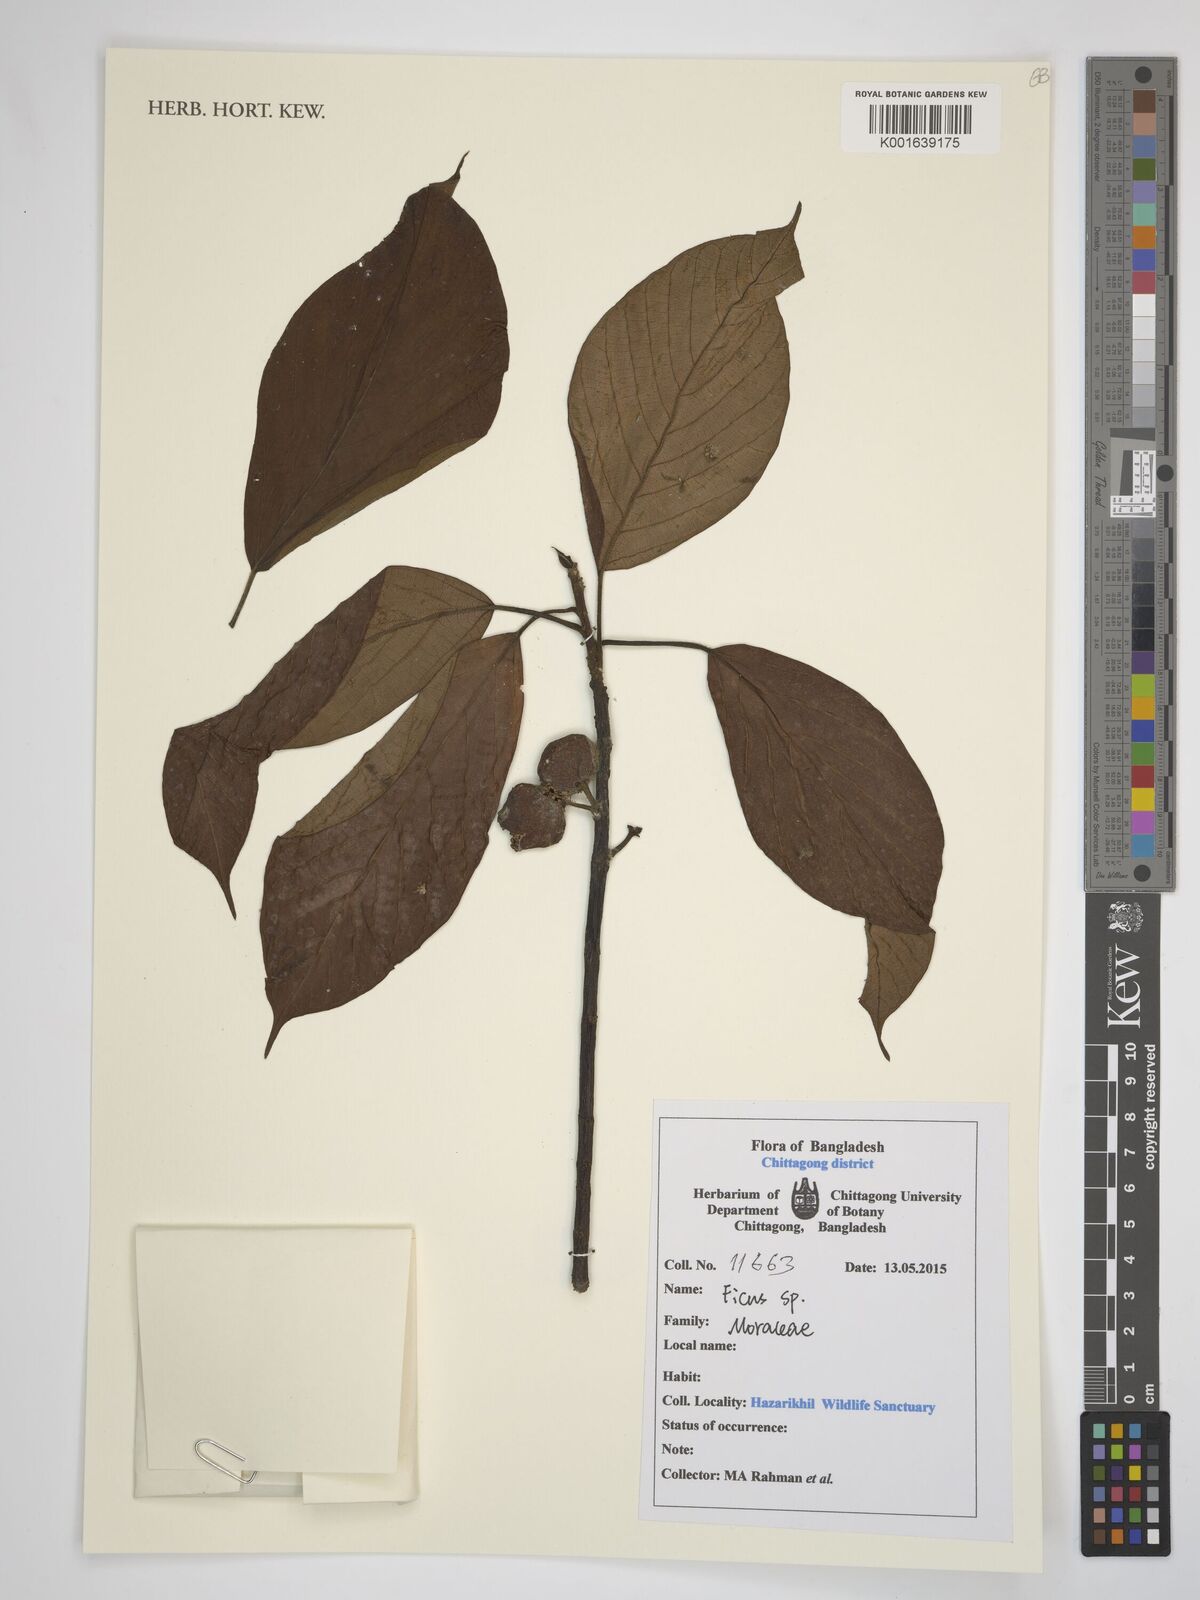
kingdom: Plantae
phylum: Tracheophyta
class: Magnoliopsida
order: Rosales
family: Moraceae
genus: Ficus
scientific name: Ficus
